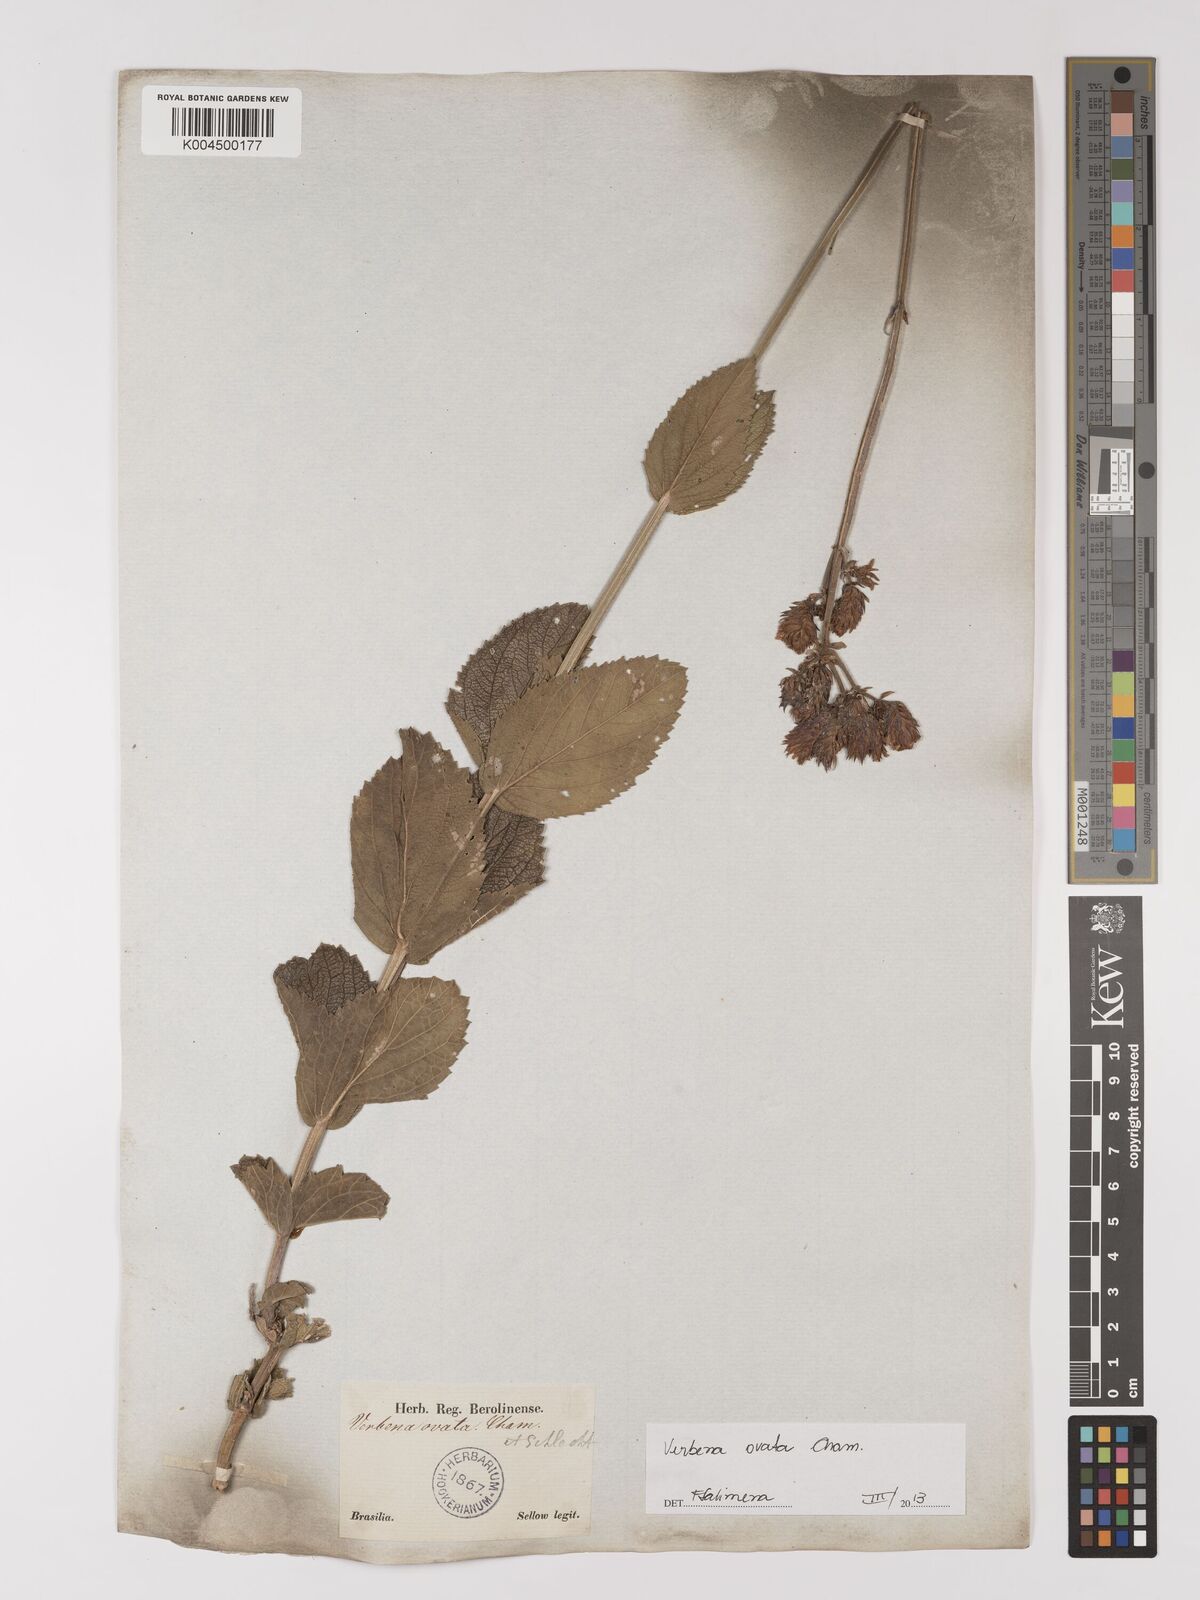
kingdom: Plantae
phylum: Tracheophyta
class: Magnoliopsida
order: Lamiales
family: Verbenaceae
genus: Verbena
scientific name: Verbena ovata
